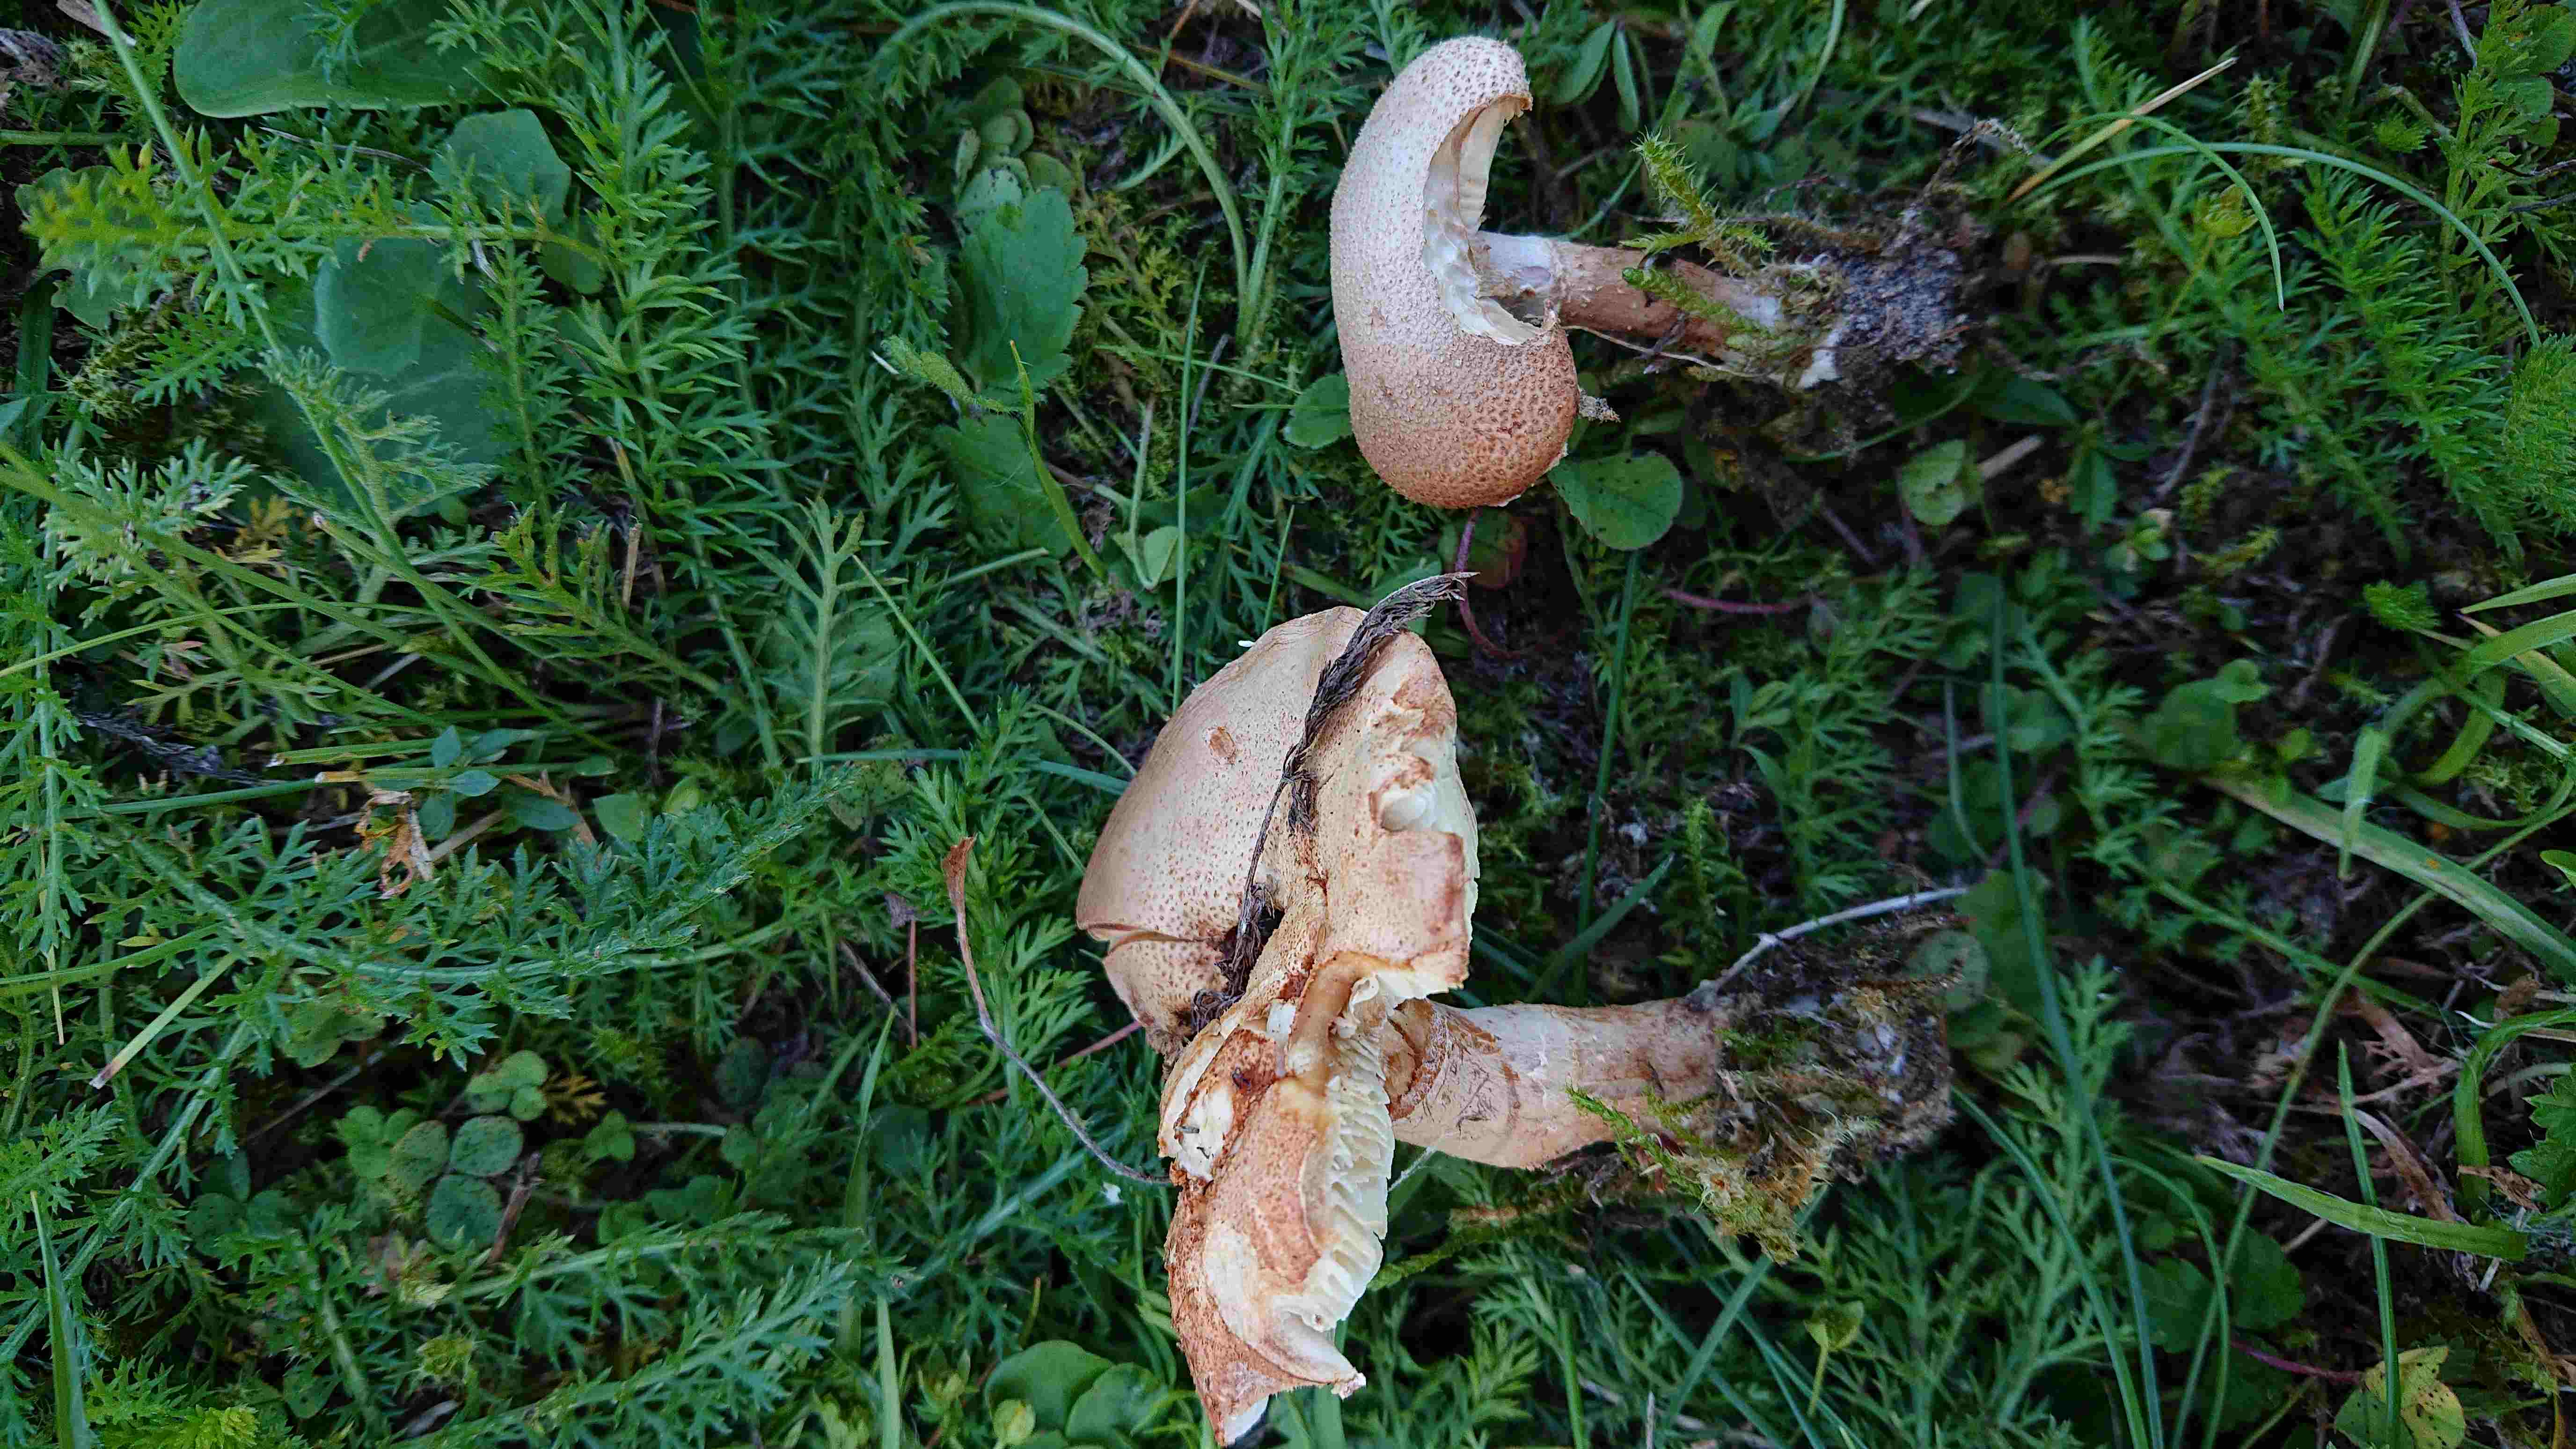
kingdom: Fungi
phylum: Basidiomycota
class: Agaricomycetes
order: Agaricales
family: Agaricaceae
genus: Cystodermella
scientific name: Cystodermella
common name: grynhat
